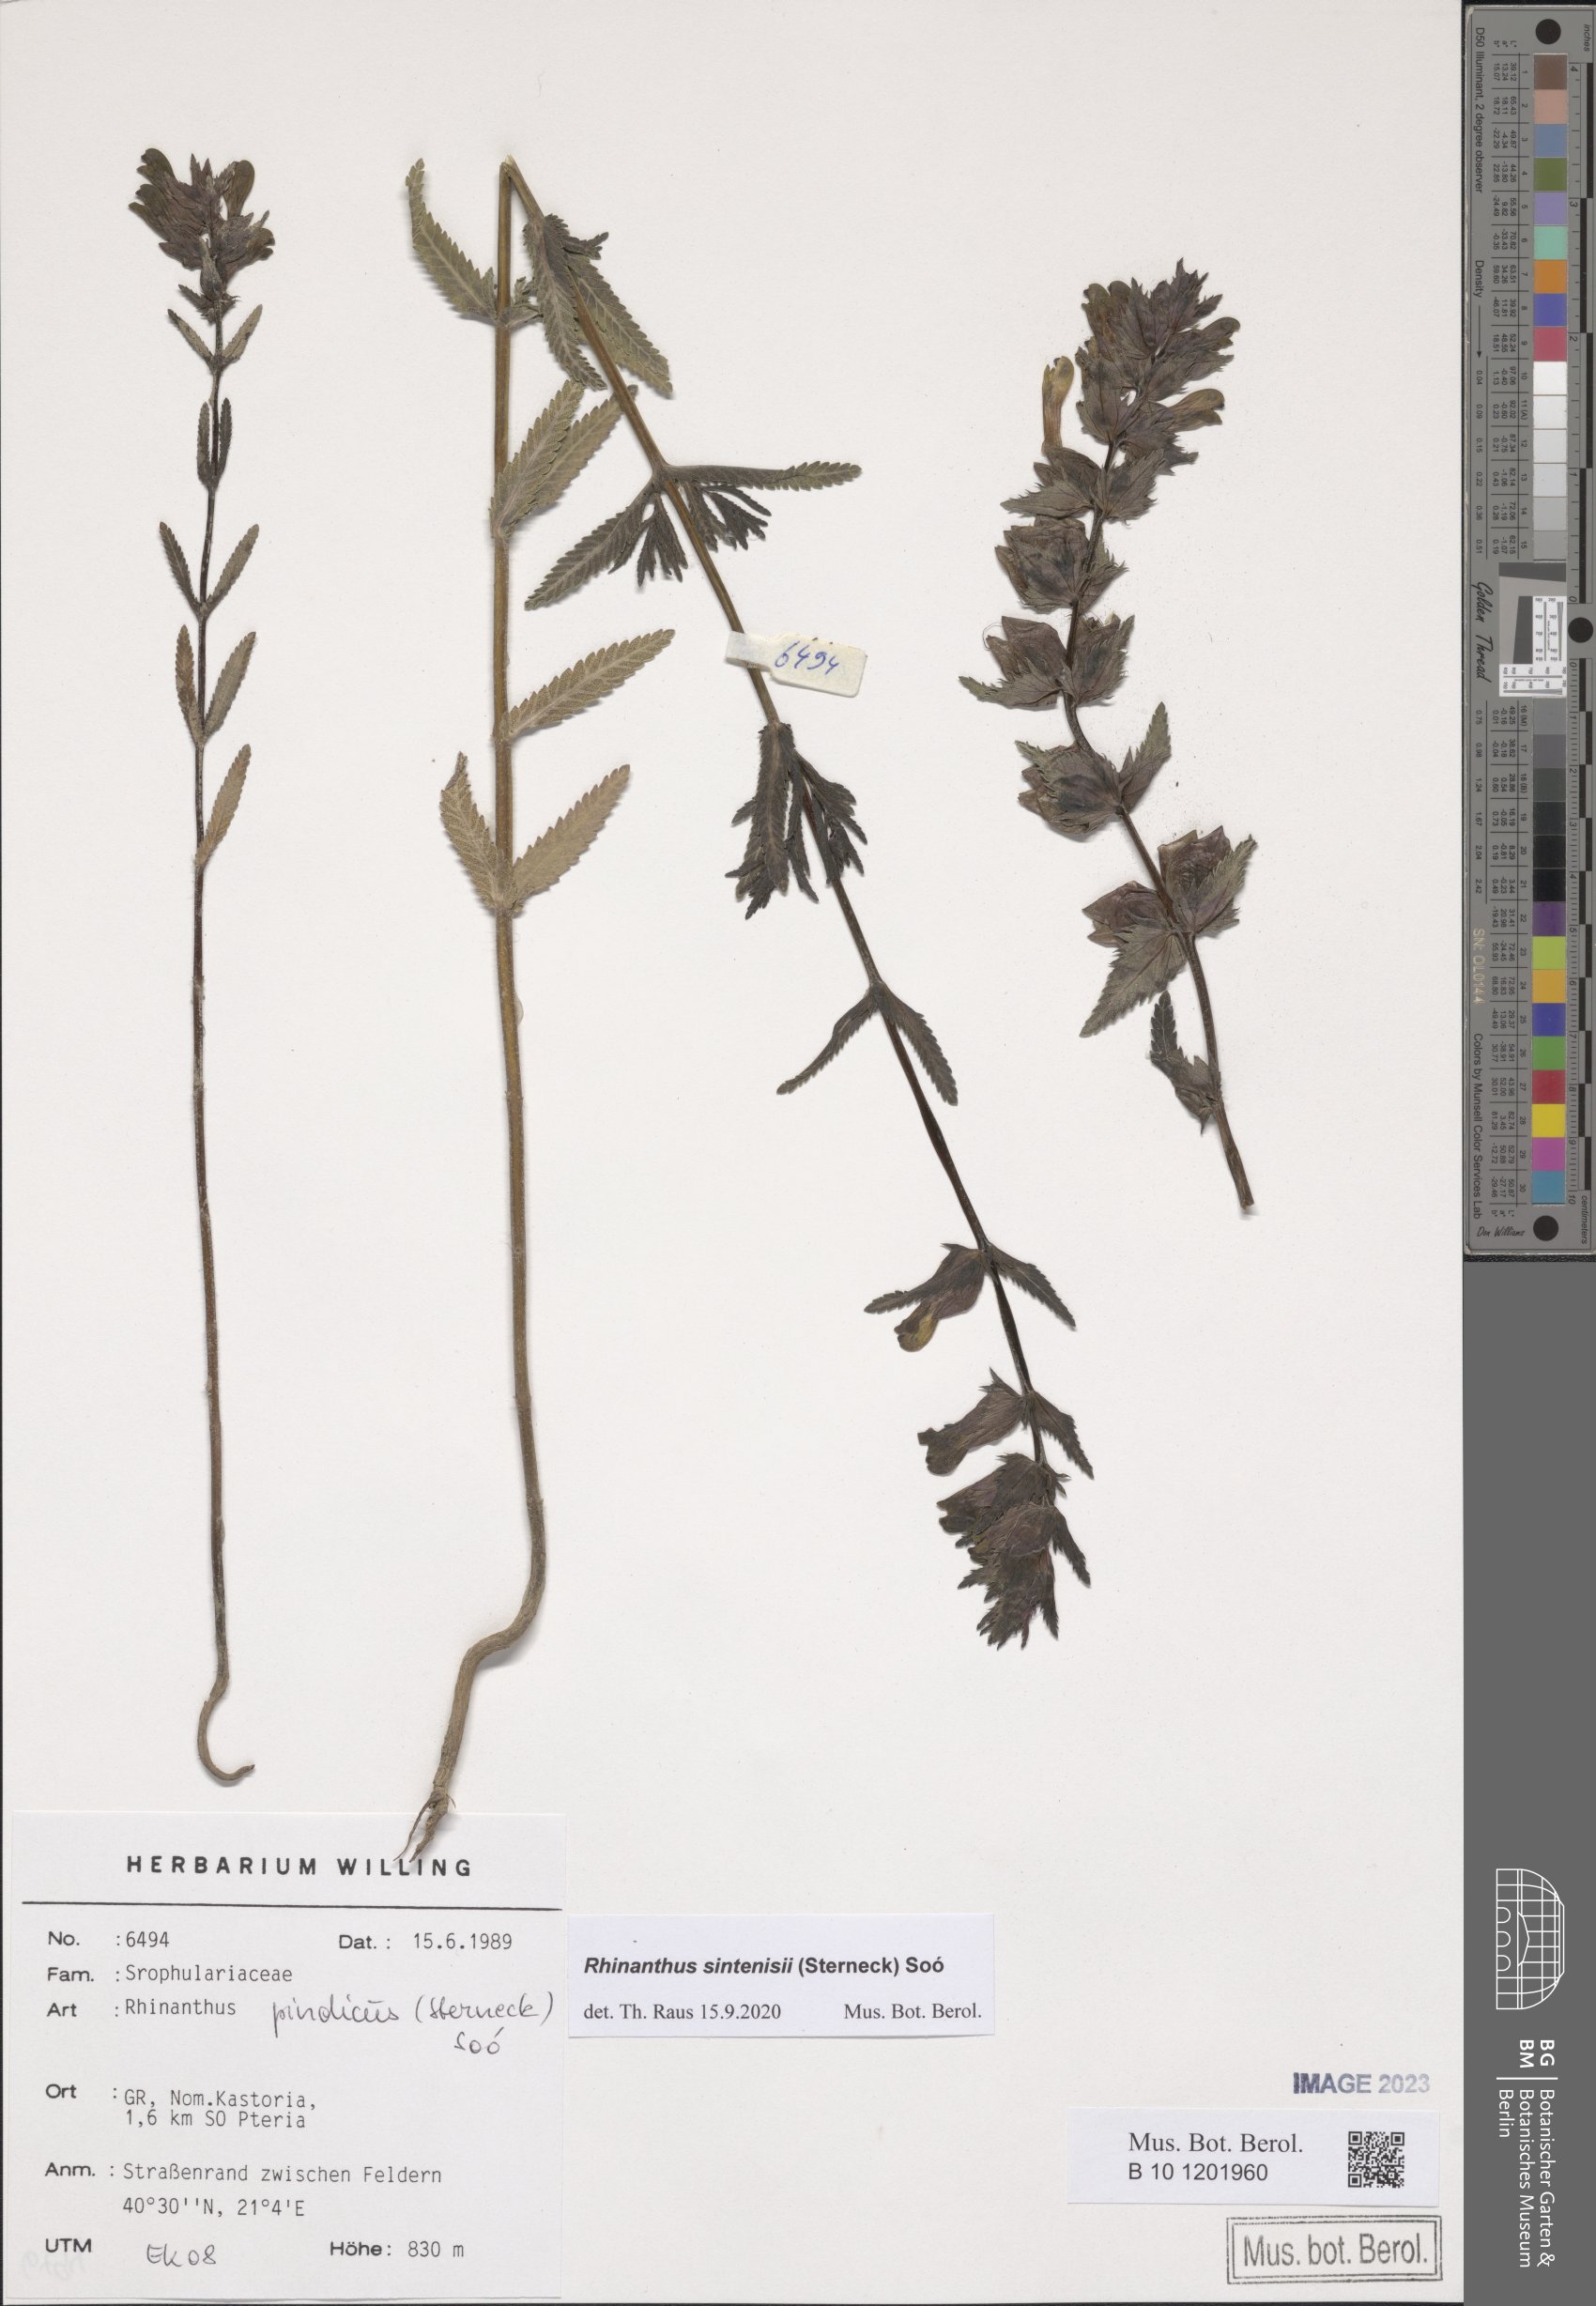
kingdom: Plantae
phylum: Tracheophyta
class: Magnoliopsida
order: Lamiales
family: Orobanchaceae
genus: Rhinanthus
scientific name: Rhinanthus sintenisii
